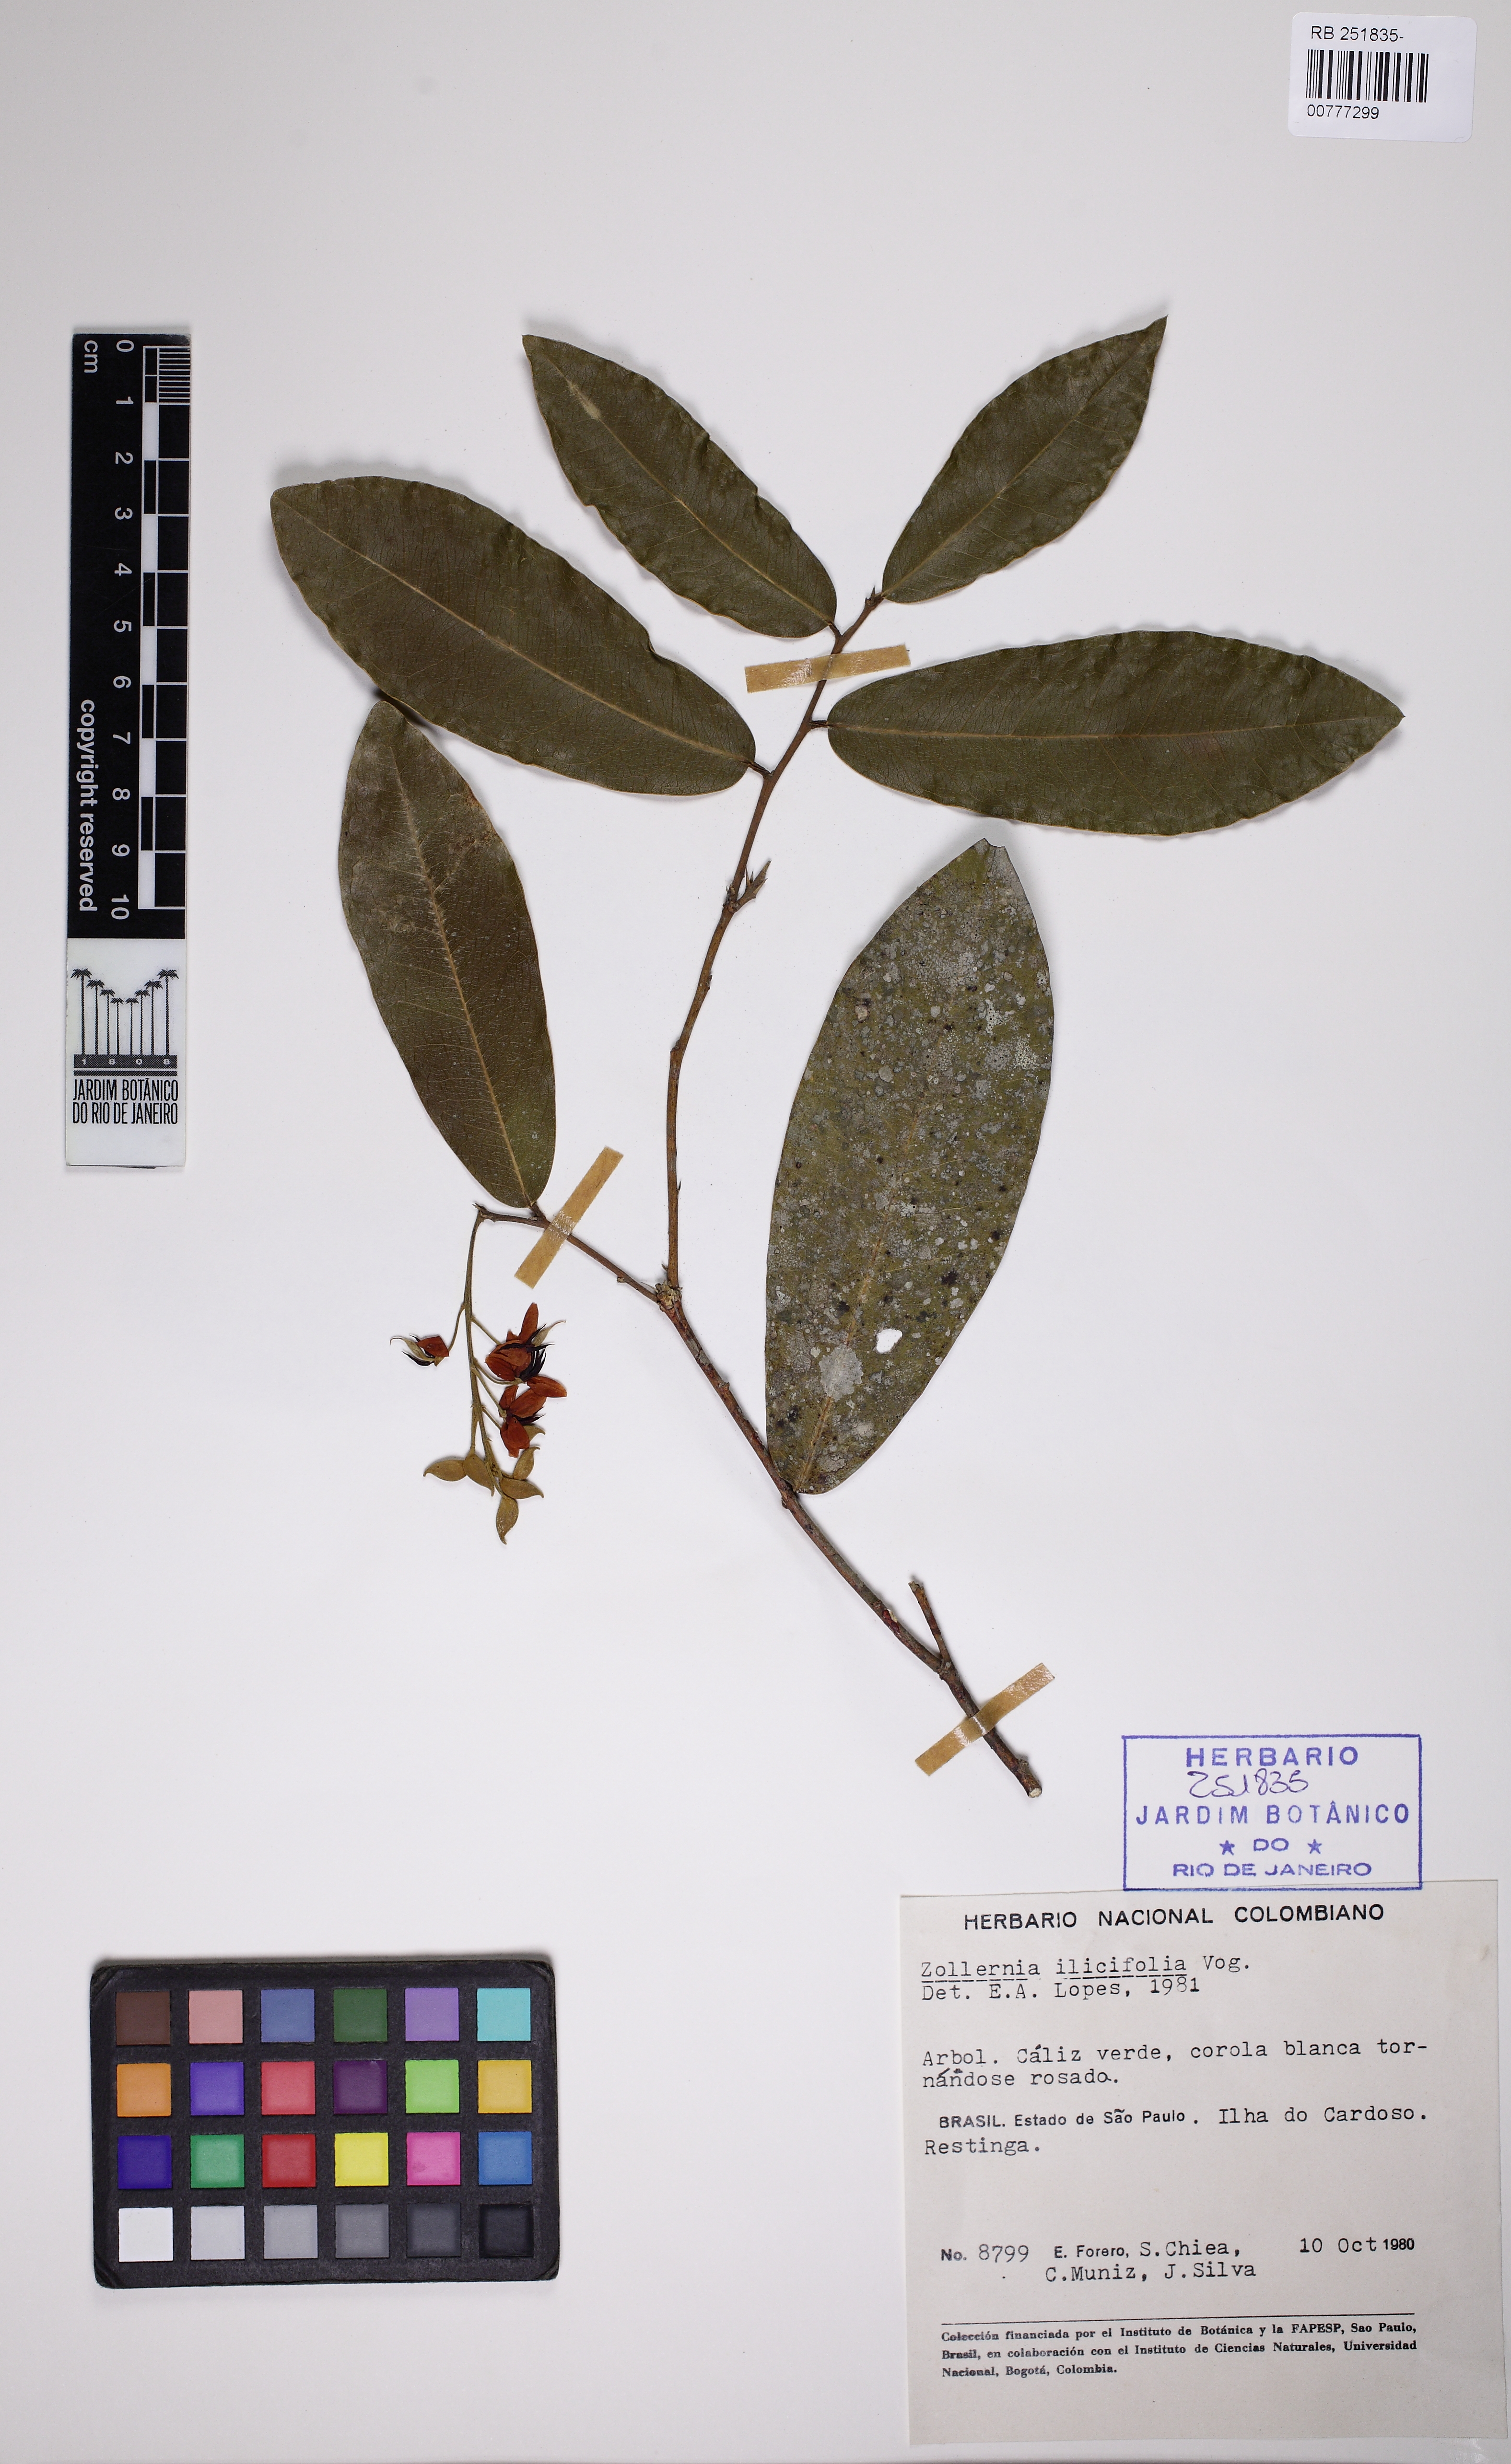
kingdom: Plantae
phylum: Tracheophyta
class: Magnoliopsida
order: Fabales
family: Fabaceae
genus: Zollernia
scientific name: Zollernia ilicifolia
